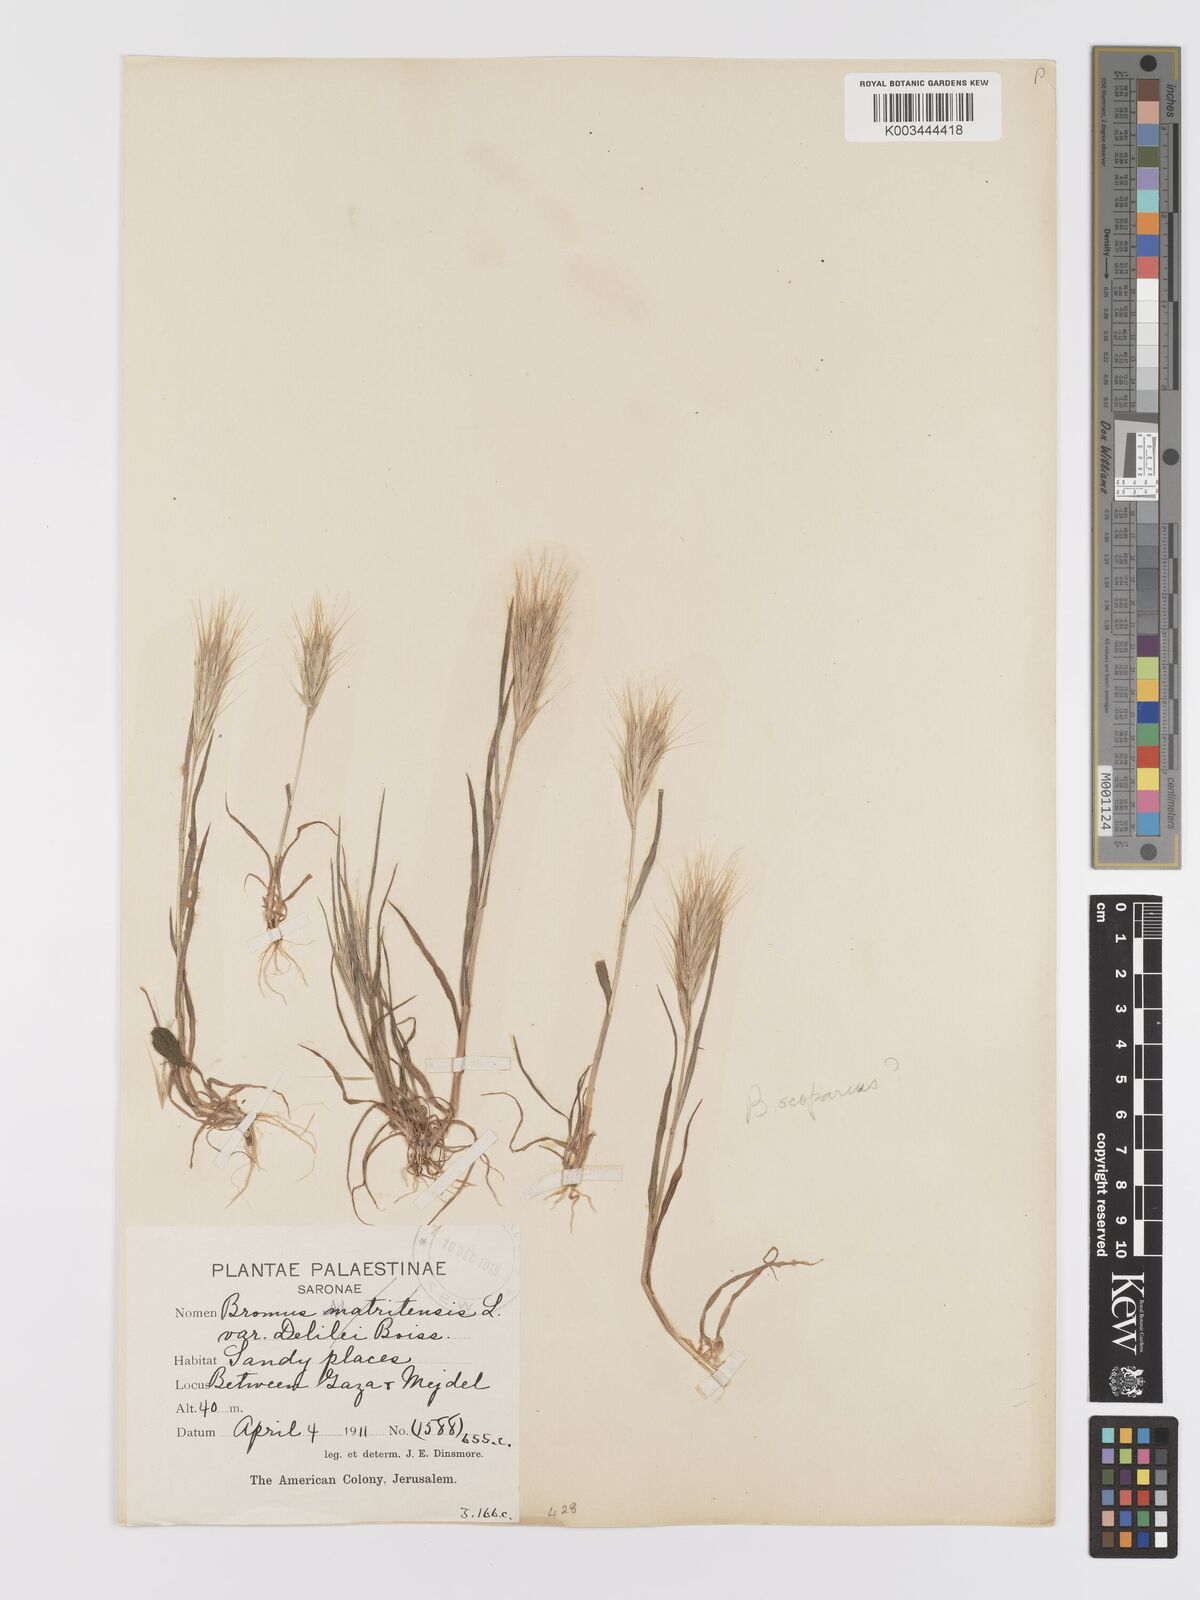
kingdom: Plantae
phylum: Tracheophyta
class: Liliopsida
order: Poales
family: Poaceae
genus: Bromus
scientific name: Bromus rubens
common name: Red brome
